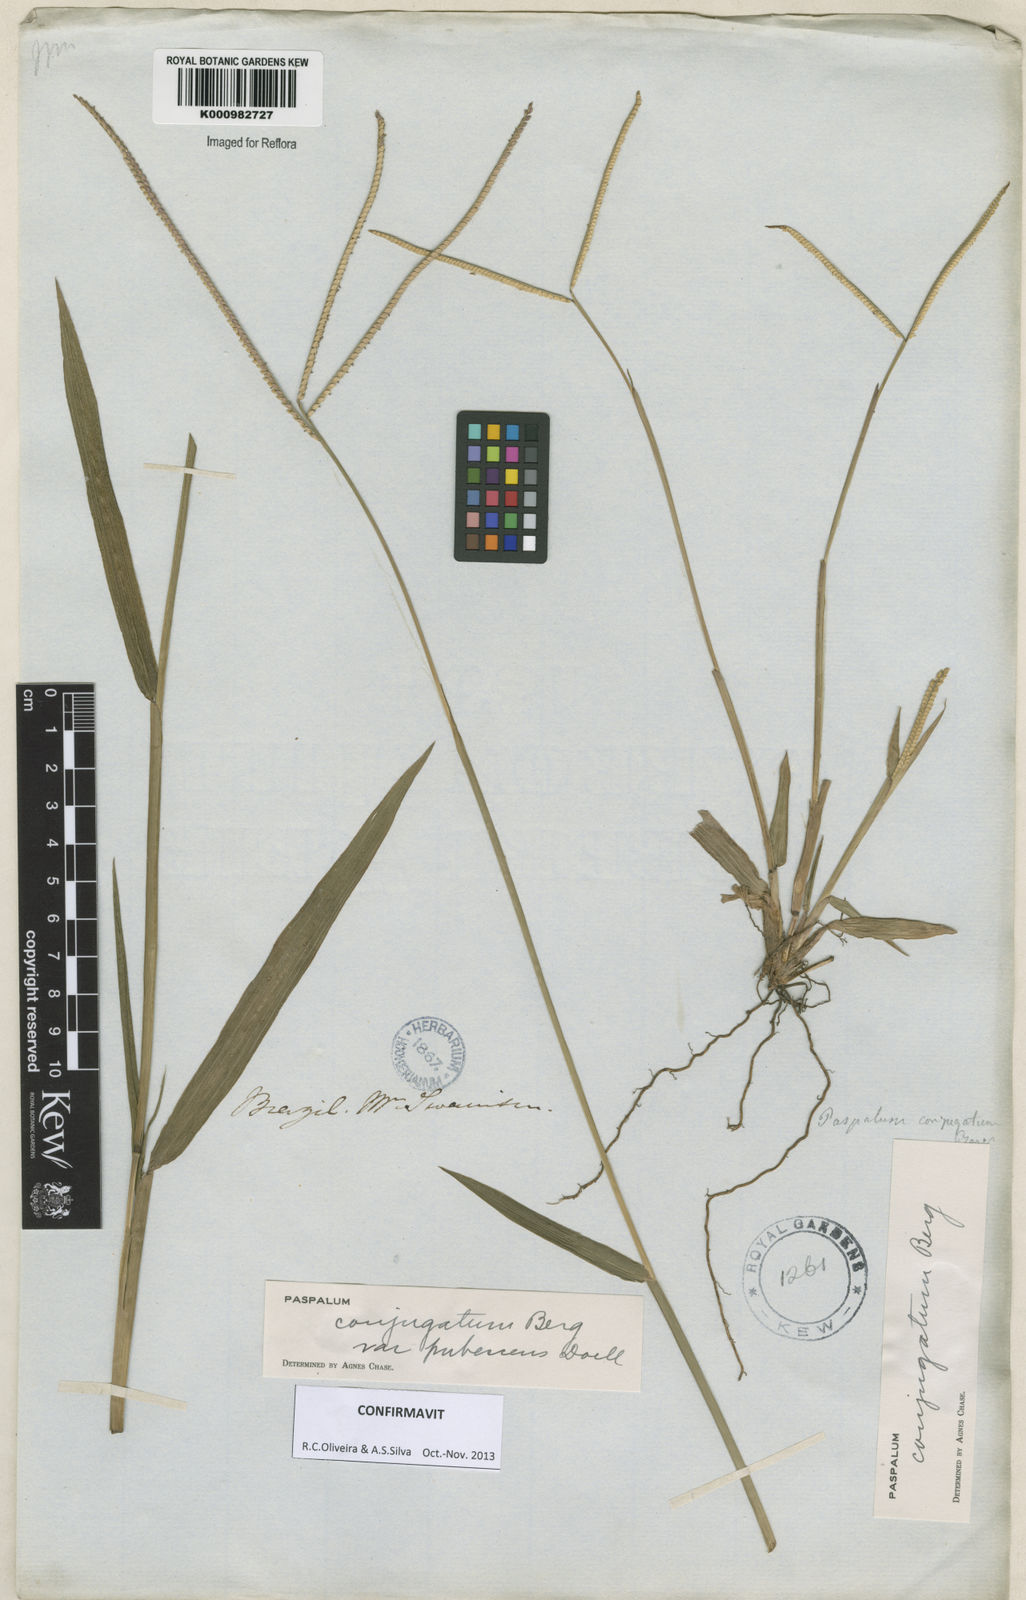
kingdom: Plantae
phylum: Tracheophyta
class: Liliopsida
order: Poales
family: Poaceae
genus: Paspalum
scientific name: Paspalum conjugatum
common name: Hilograss
